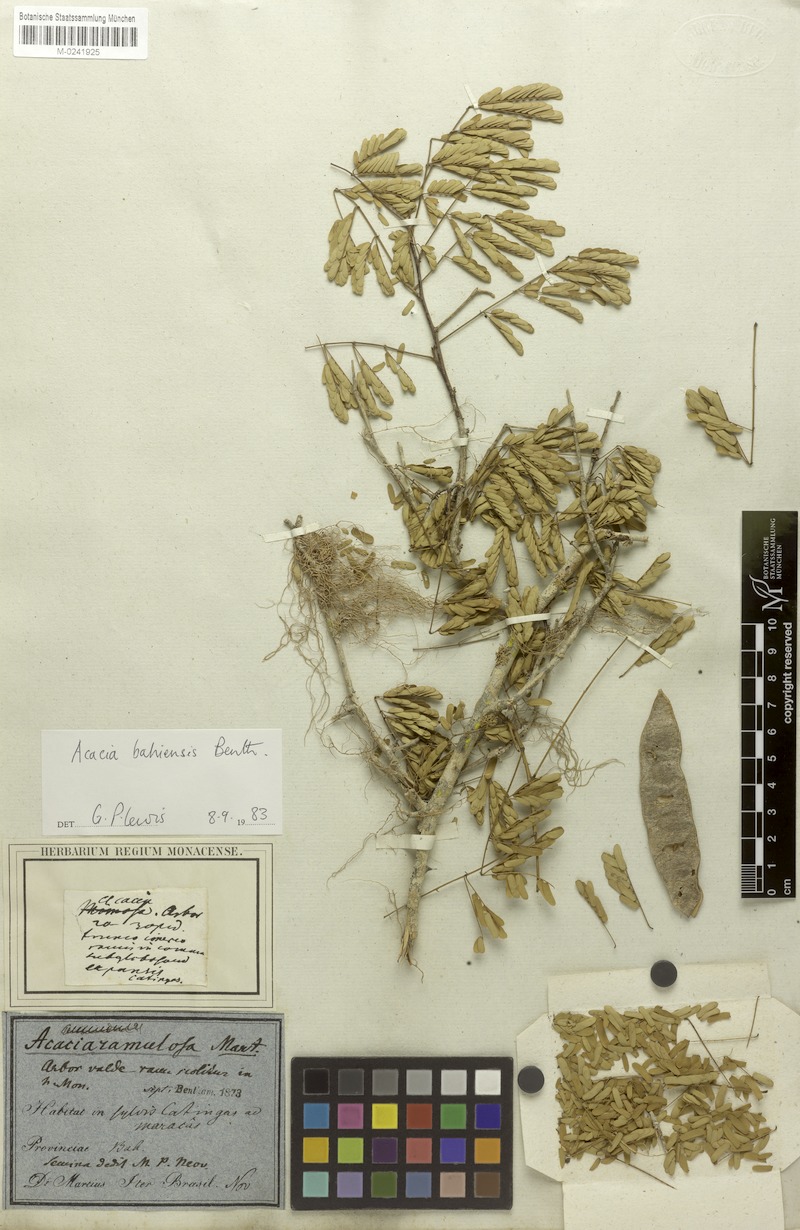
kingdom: Plantae
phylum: Tracheophyta
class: Magnoliopsida
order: Fabales
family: Fabaceae
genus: Senegalia
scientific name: Senegalia bahiensis
